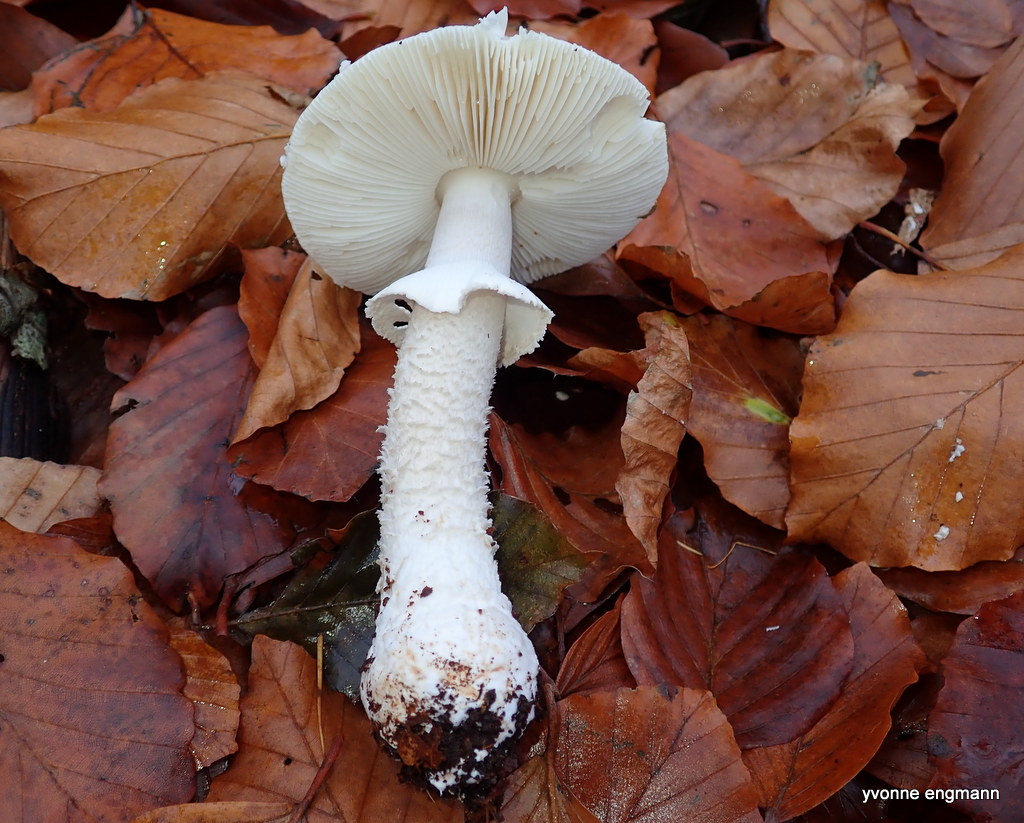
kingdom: Fungi
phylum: Basidiomycota
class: Agaricomycetes
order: Agaricales
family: Amanitaceae
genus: Amanita
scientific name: Amanita
